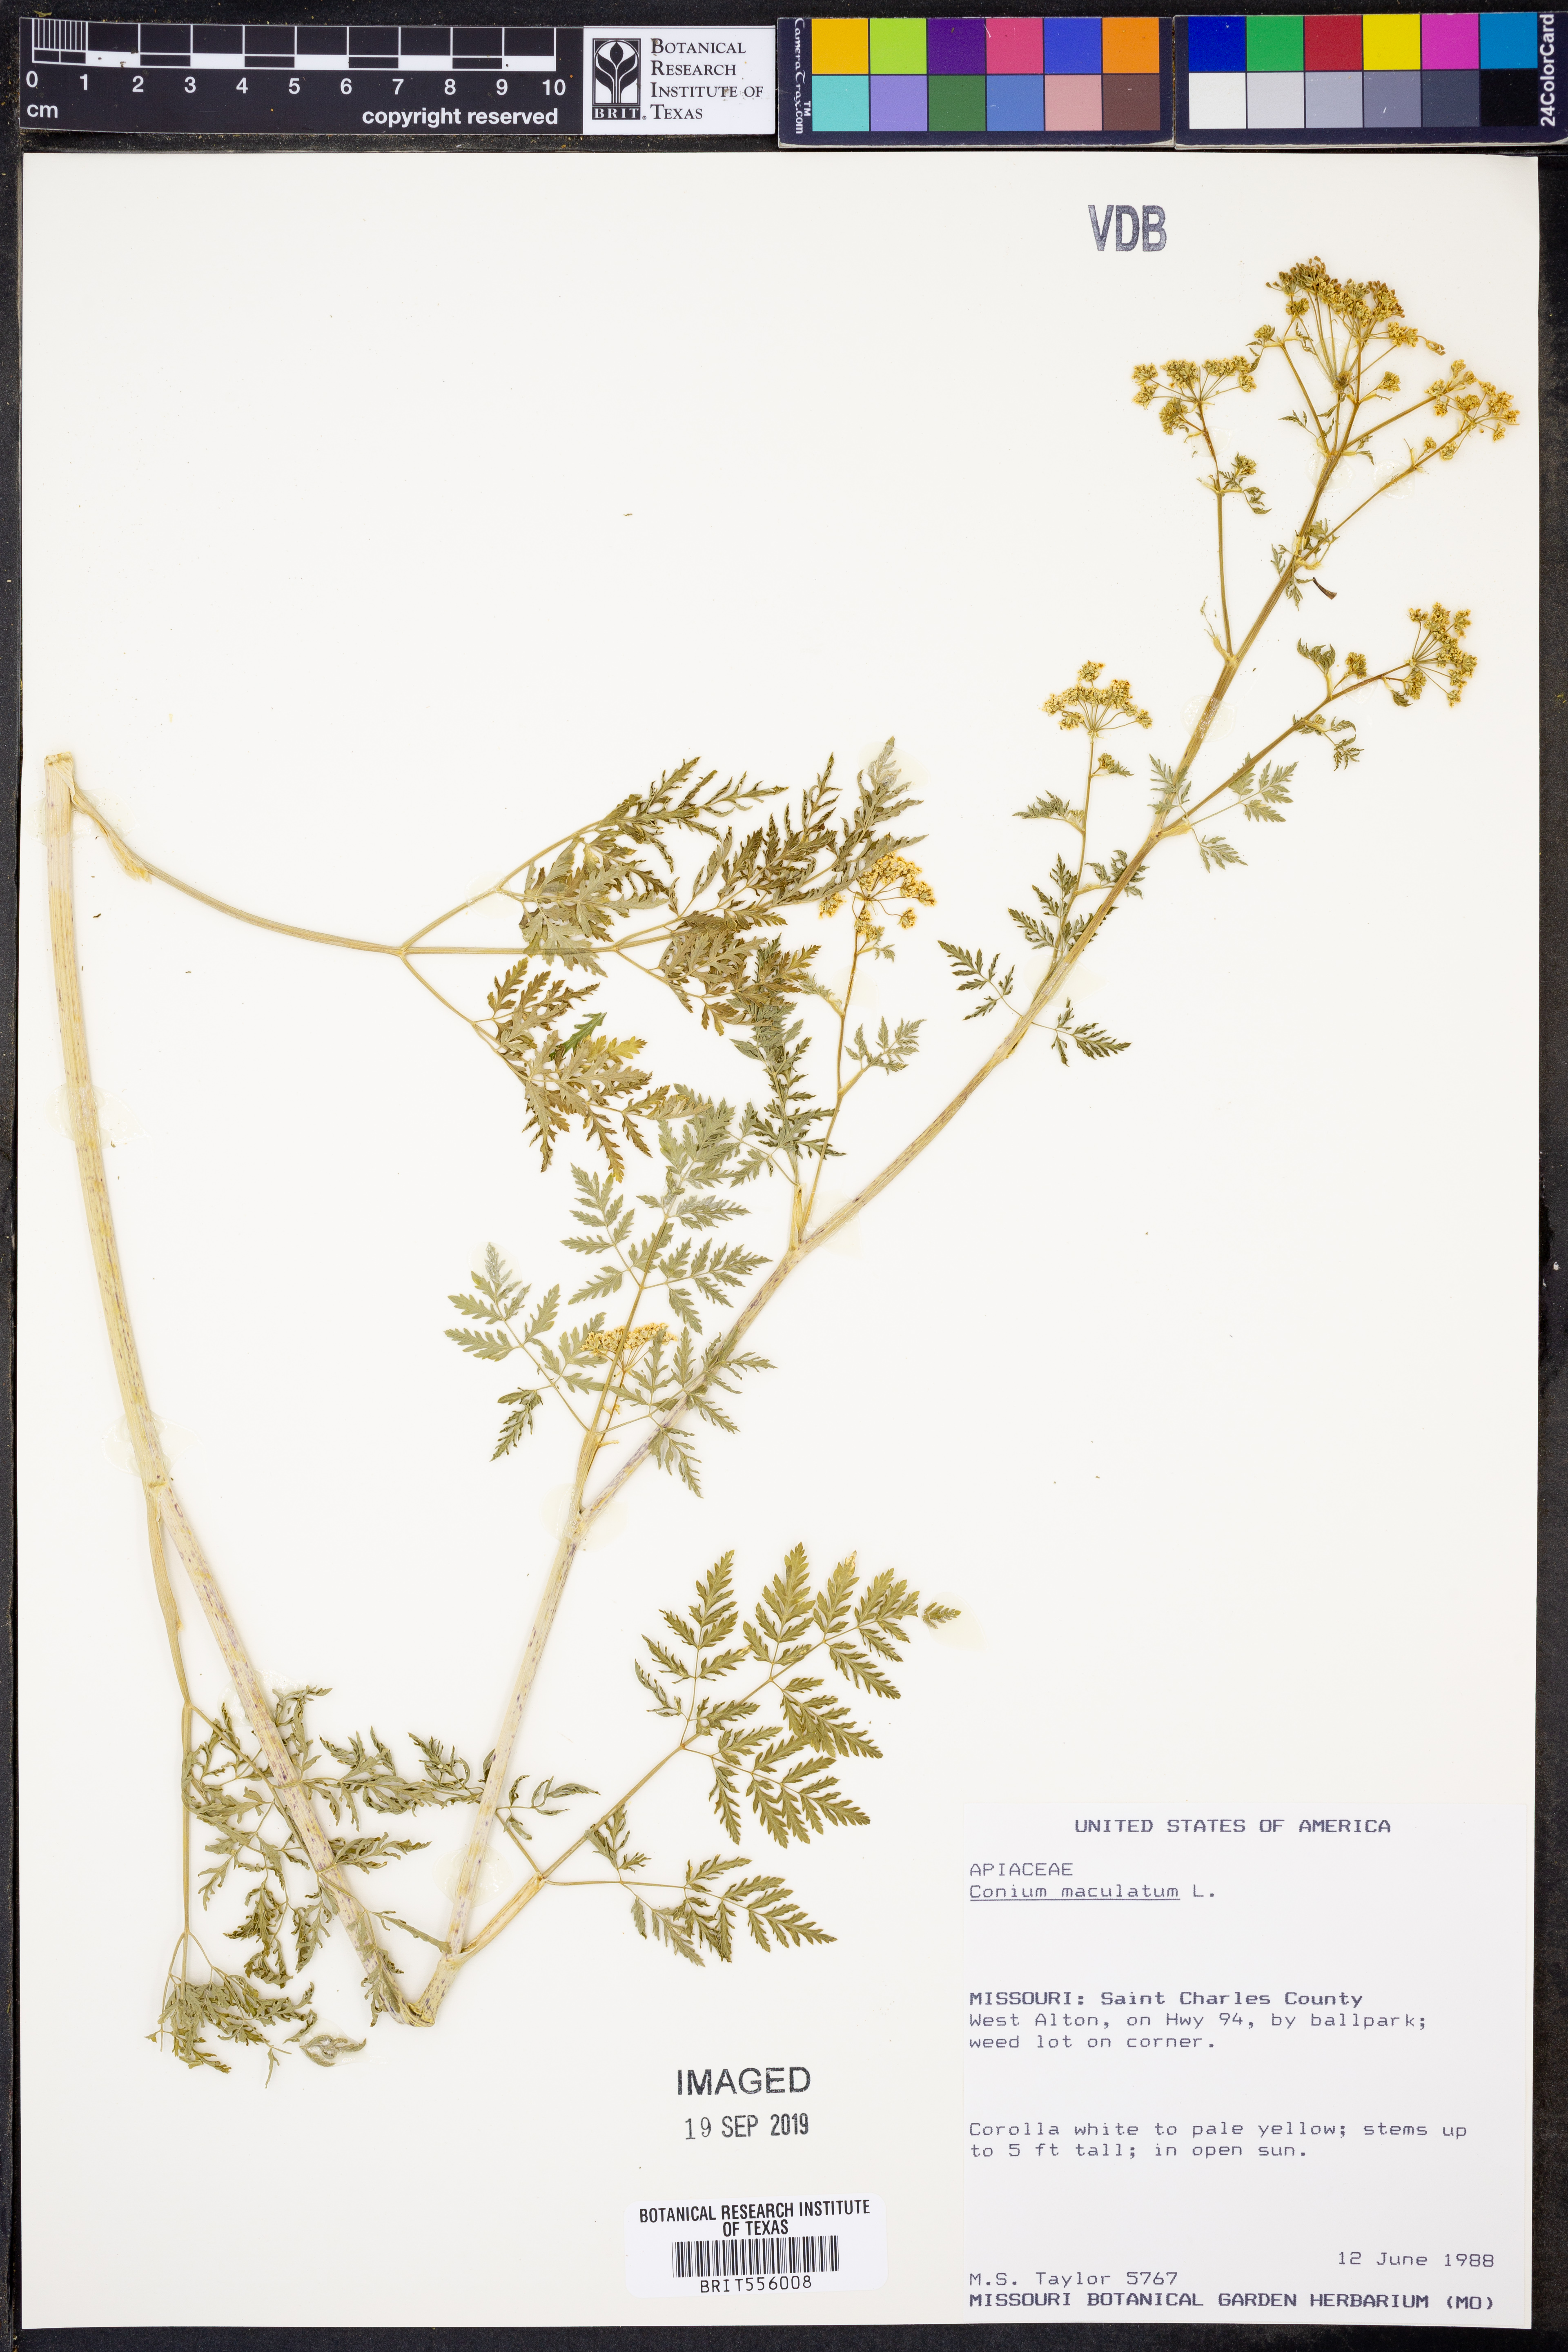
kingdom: Plantae
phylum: Tracheophyta
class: Magnoliopsida
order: Apiales
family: Apiaceae
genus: Conium
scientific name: Conium maculatum
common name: Hemlock
